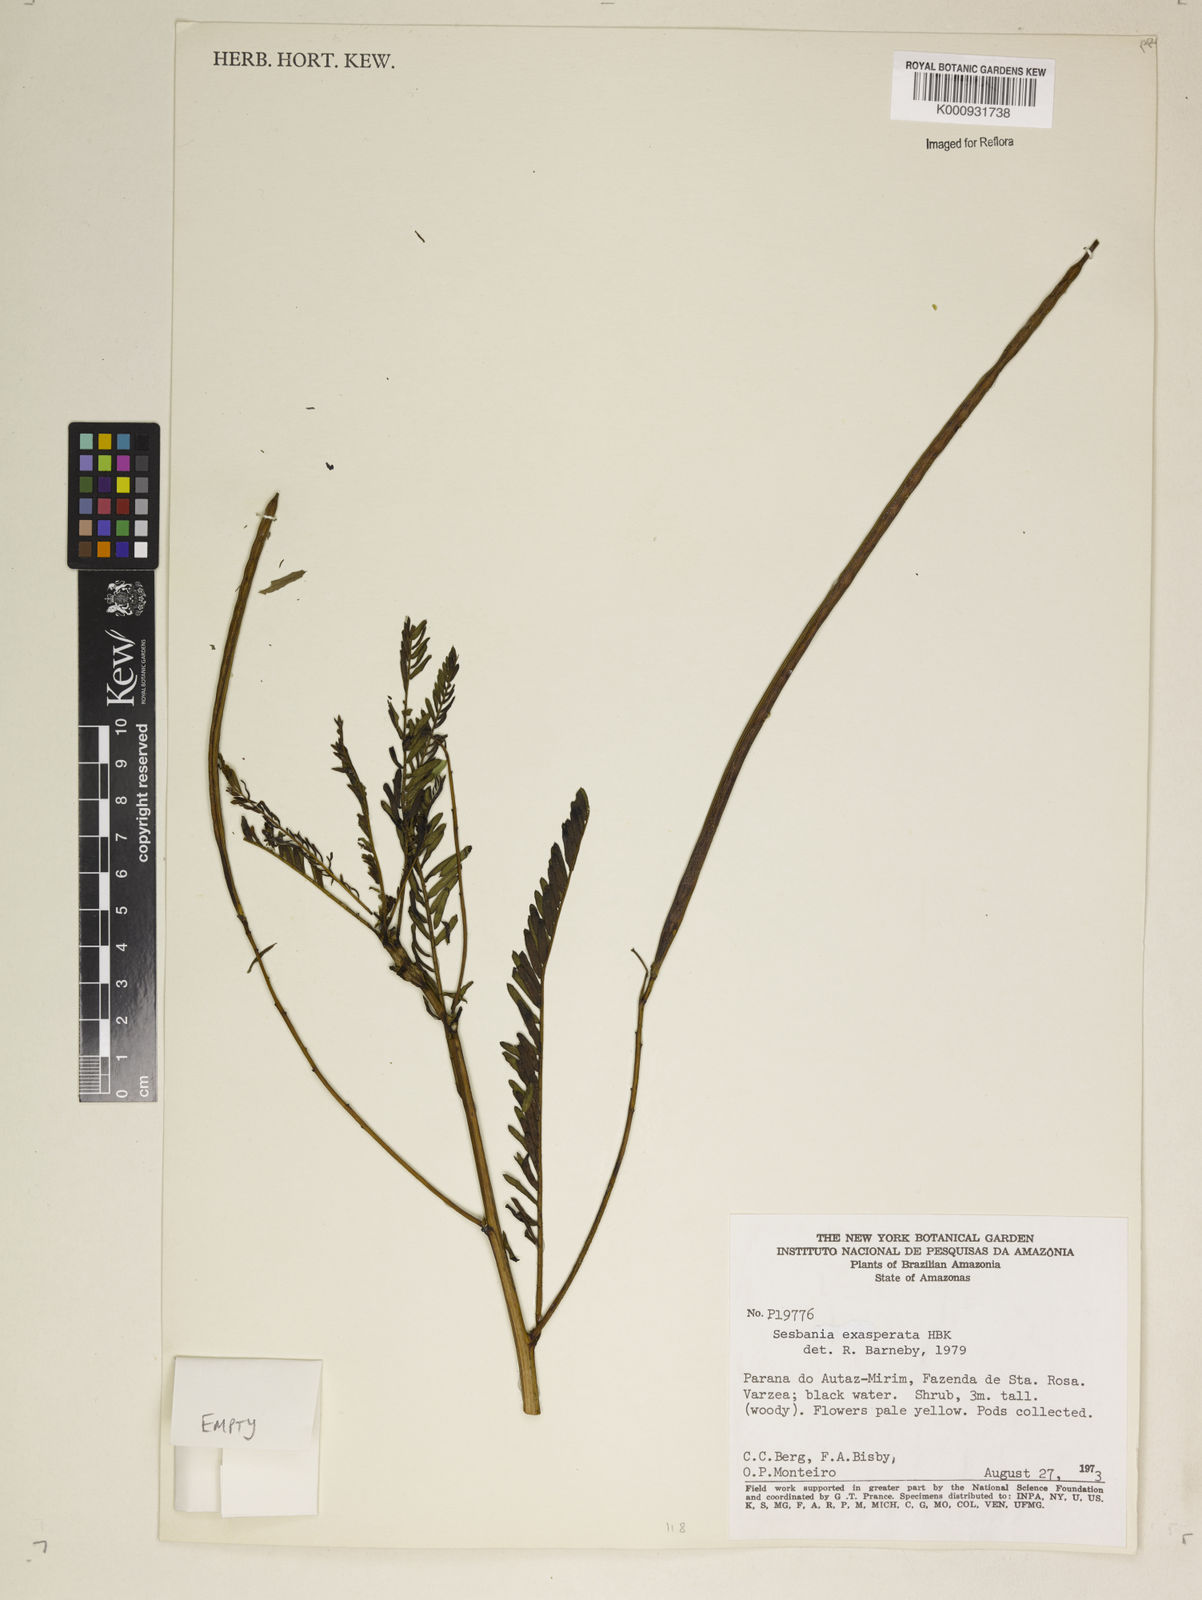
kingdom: Plantae
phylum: Tracheophyta
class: Magnoliopsida
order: Fabales
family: Fabaceae
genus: Sesbania
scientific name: Sesbania exasperata
